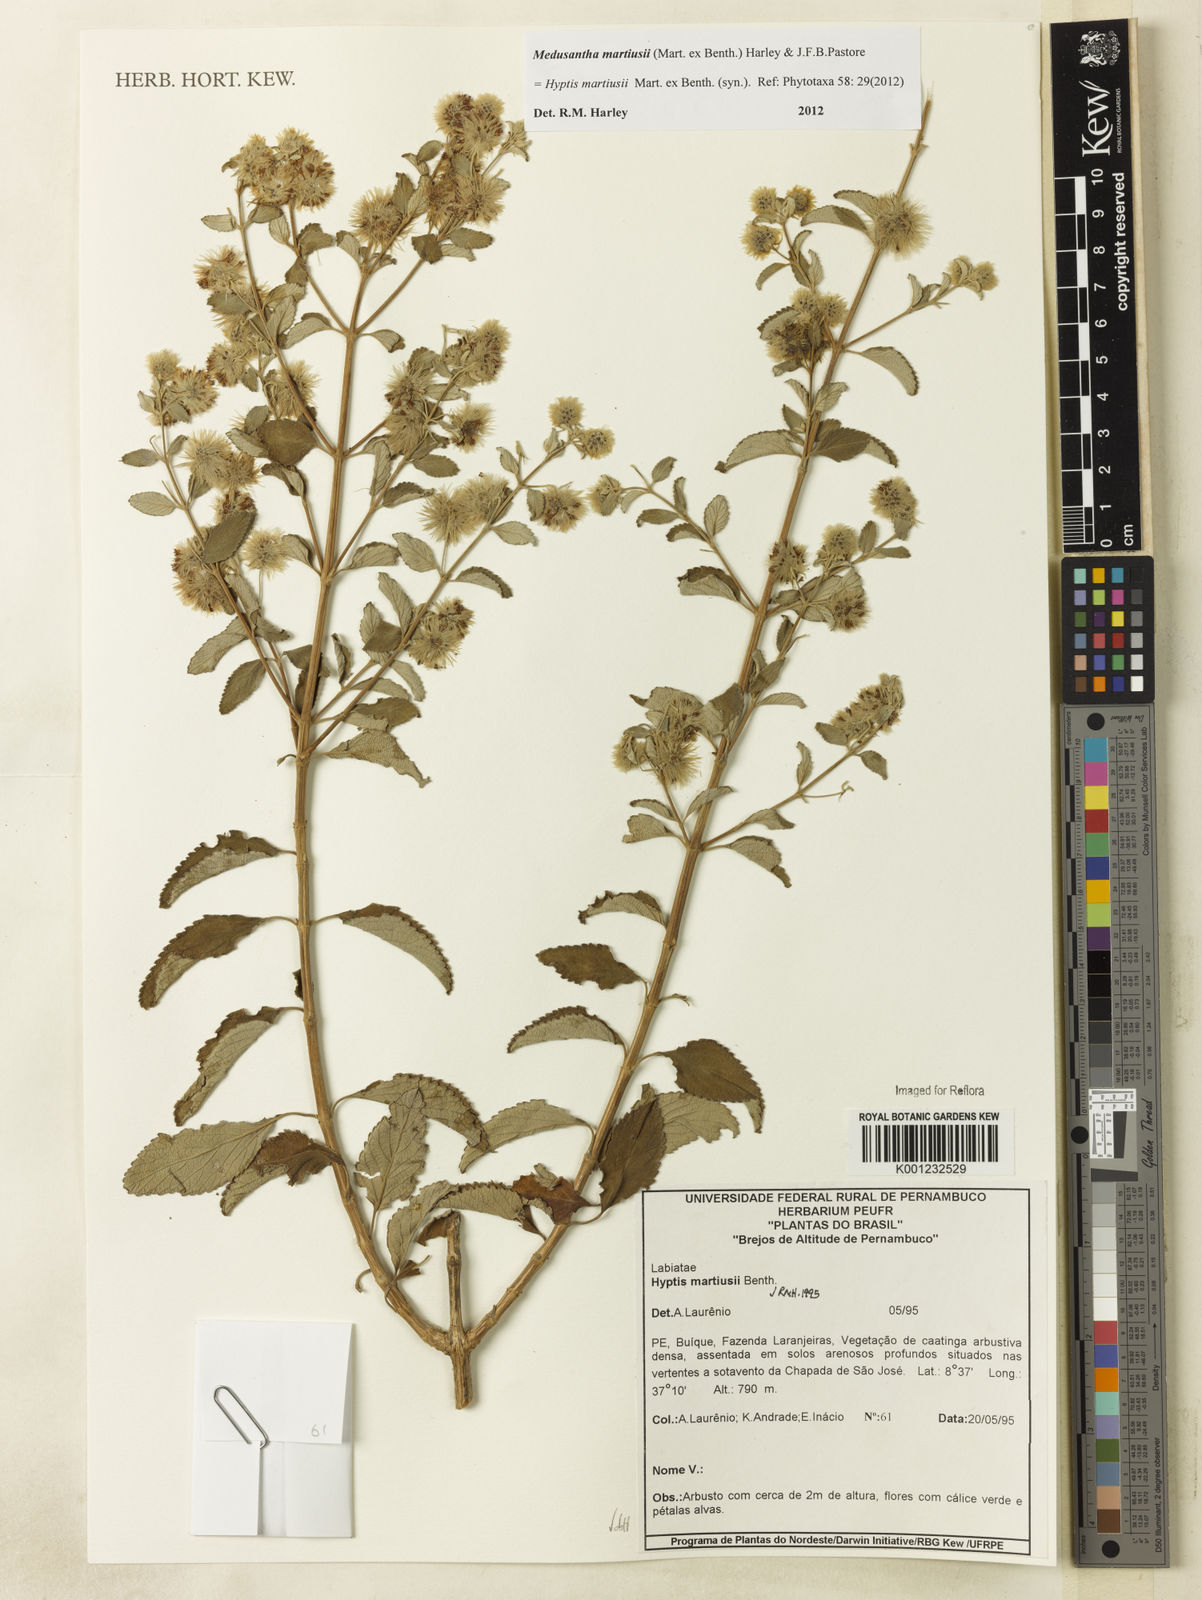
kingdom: Plantae
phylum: Tracheophyta
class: Magnoliopsida
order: Lamiales
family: Lamiaceae
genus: Medusantha
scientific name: Medusantha martiusii
